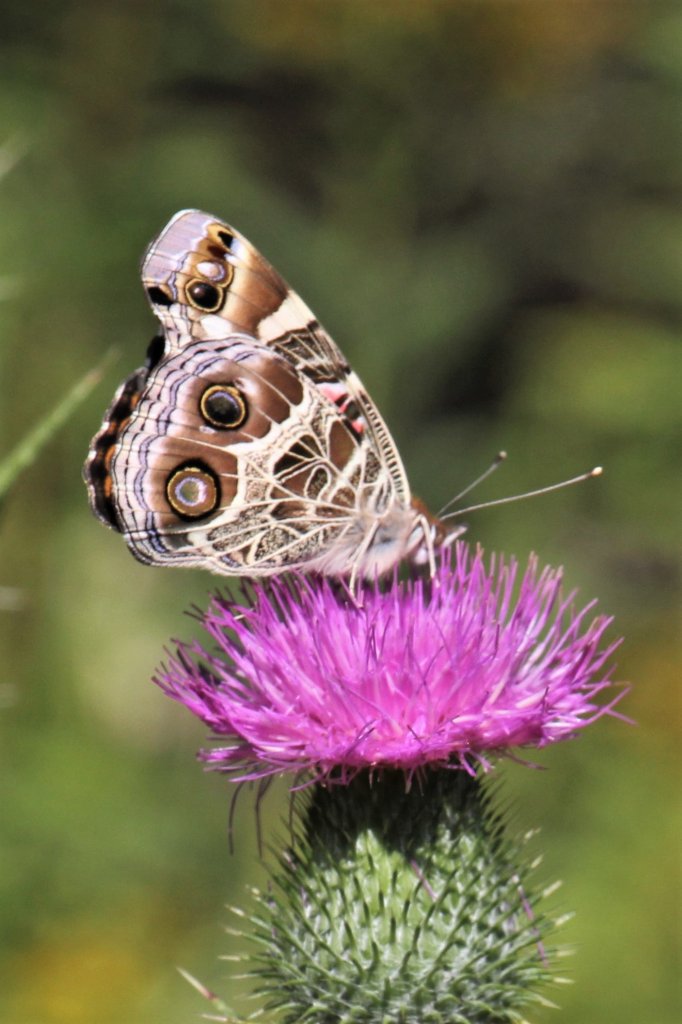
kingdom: Animalia
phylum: Arthropoda
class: Insecta
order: Lepidoptera
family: Nymphalidae
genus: Vanessa
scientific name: Vanessa virginiensis
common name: American Lady
